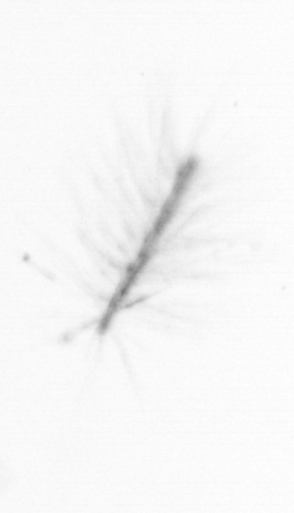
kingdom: Chromista
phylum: Ochrophyta
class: Bacillariophyceae
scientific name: Bacillariophyceae
